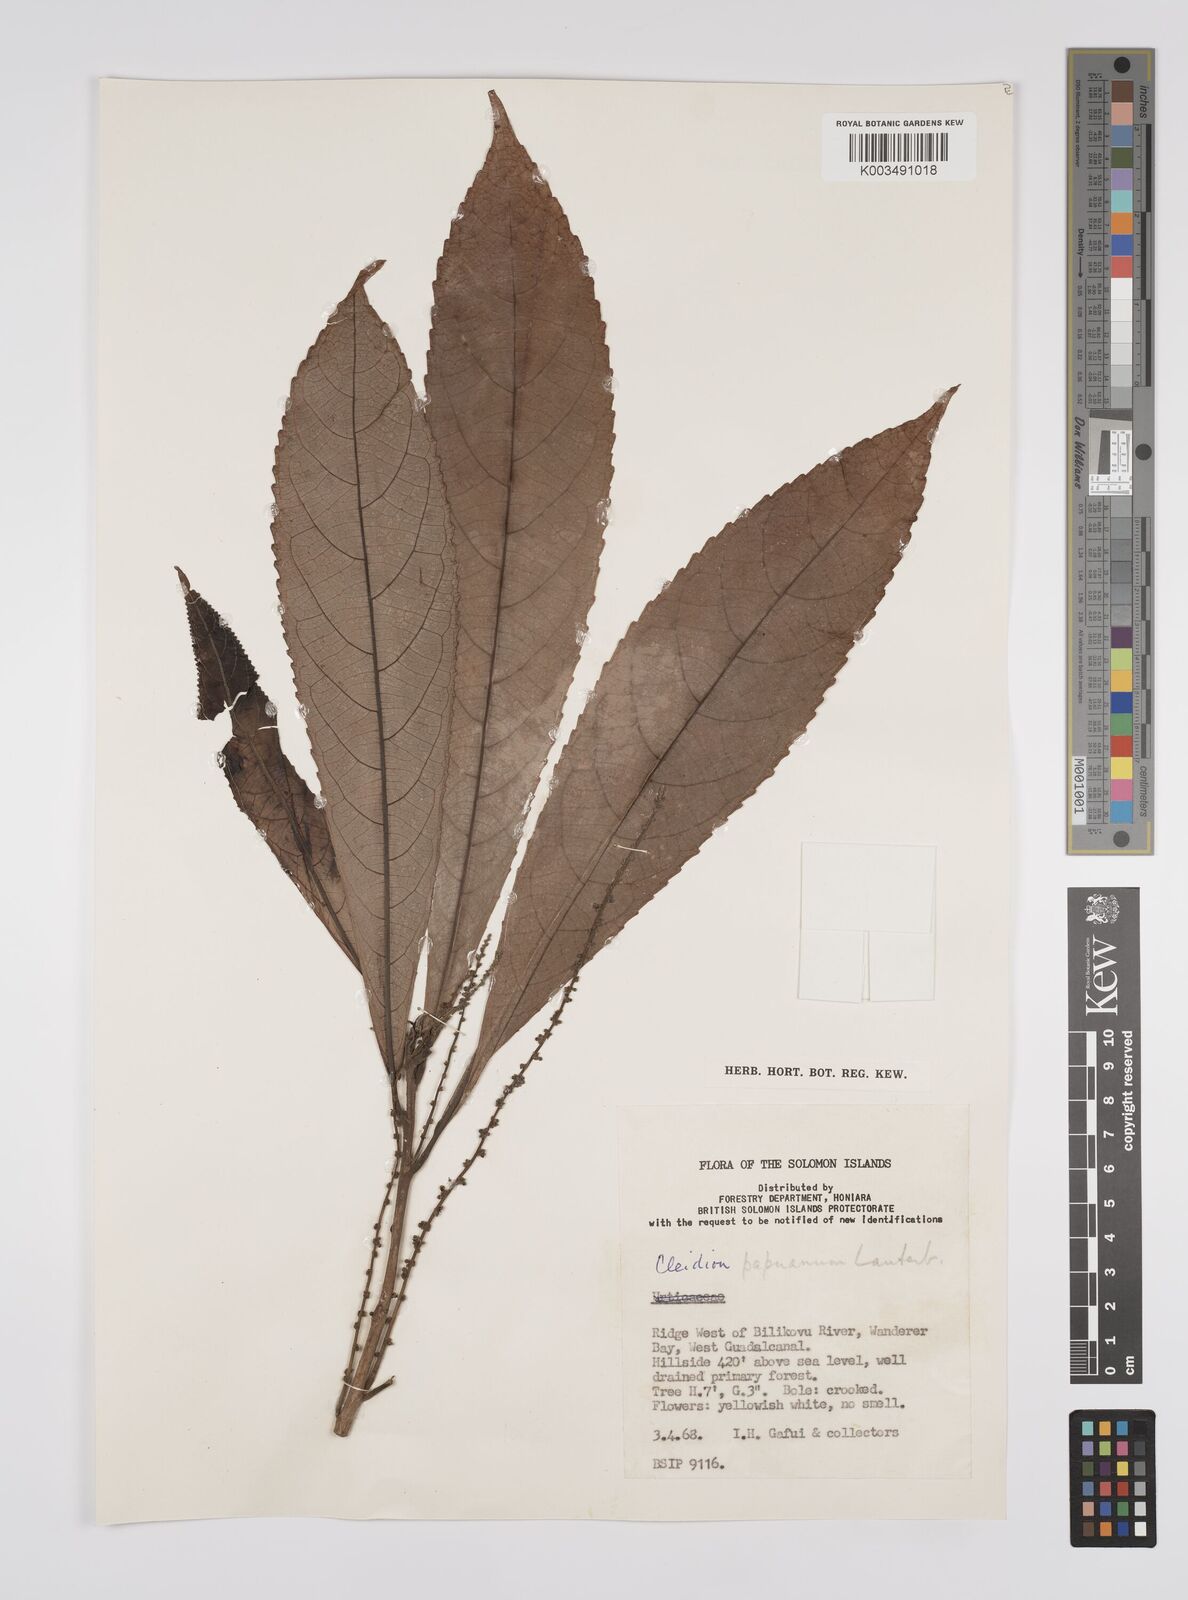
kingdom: Plantae
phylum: Tracheophyta
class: Magnoliopsida
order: Malpighiales
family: Euphorbiaceae
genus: Cleidion
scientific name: Cleidion papuanum
